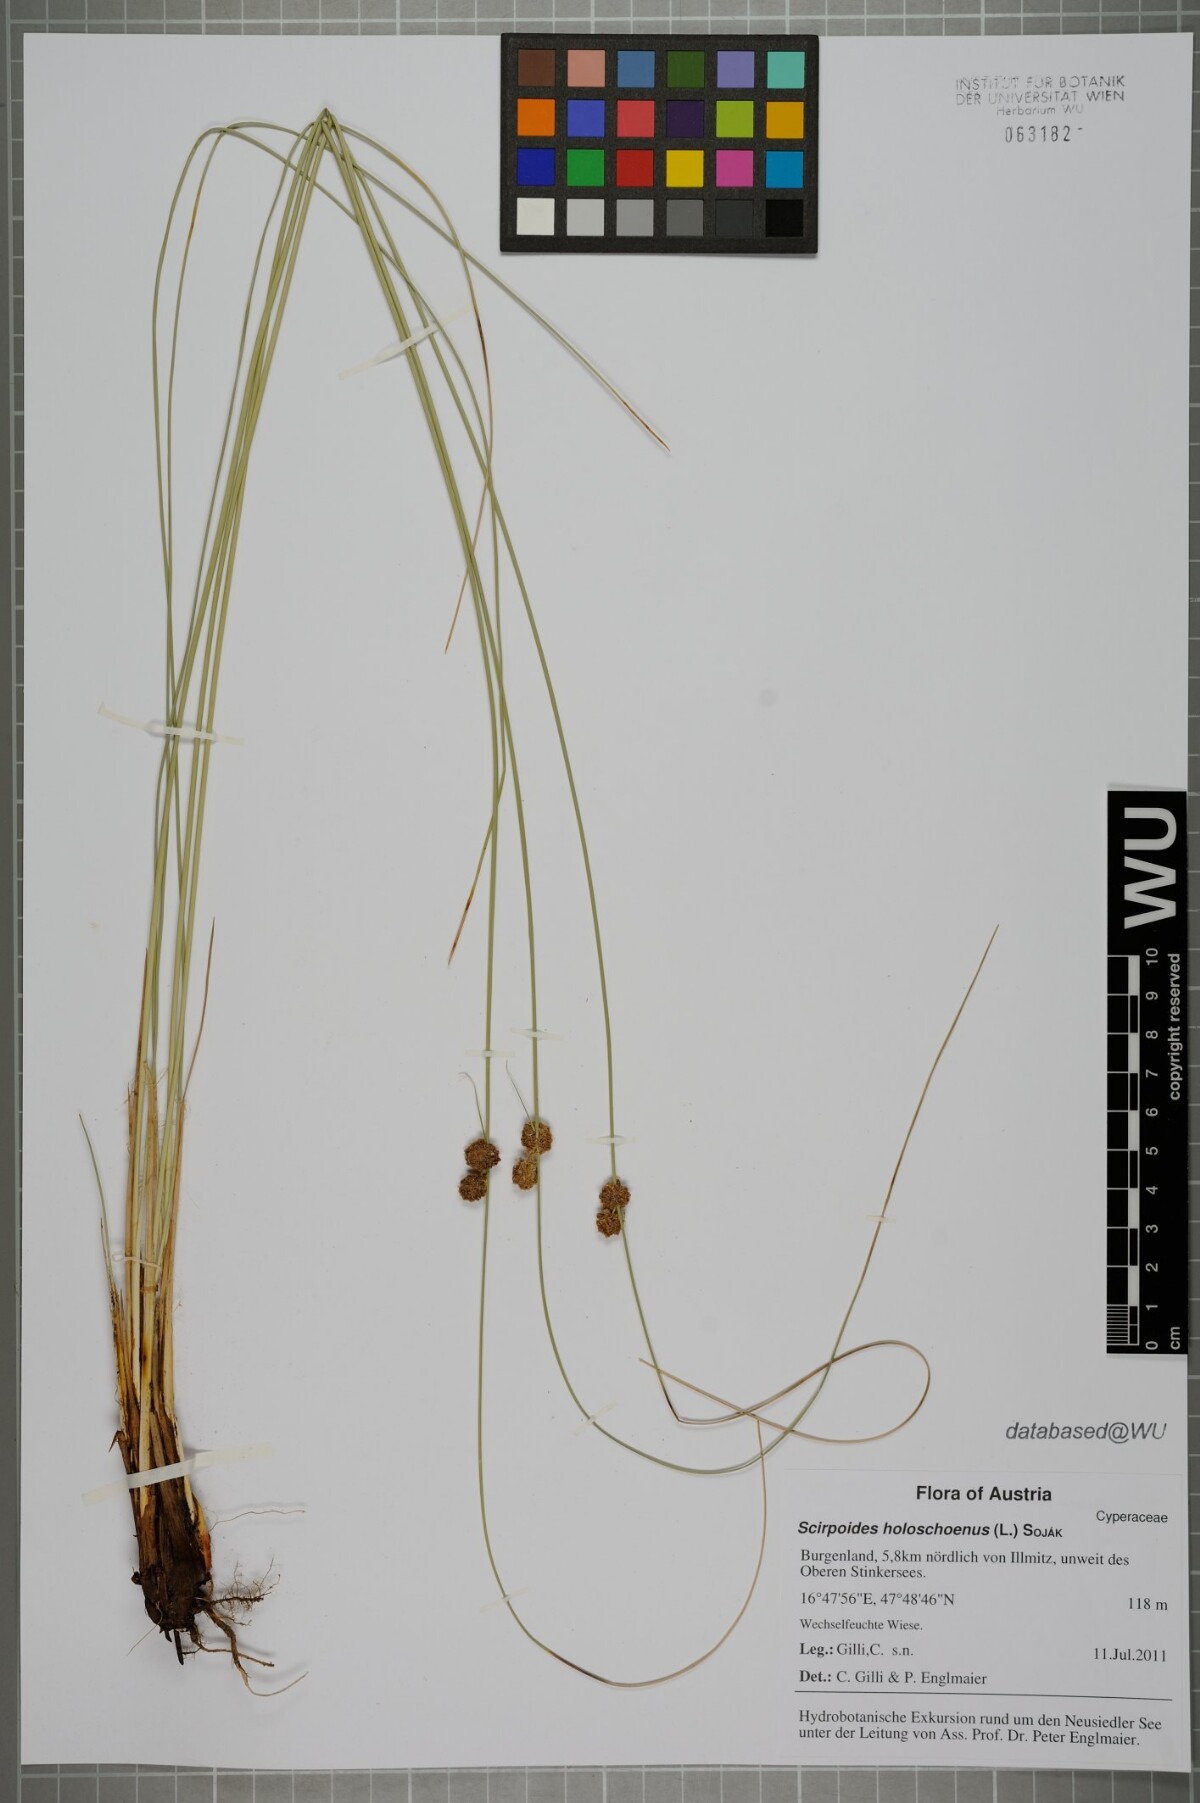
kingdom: Plantae
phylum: Tracheophyta
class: Liliopsida
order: Poales
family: Cyperaceae
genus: Scirpoides
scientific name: Scirpoides holoschoenus
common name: Round-headed club-rush
